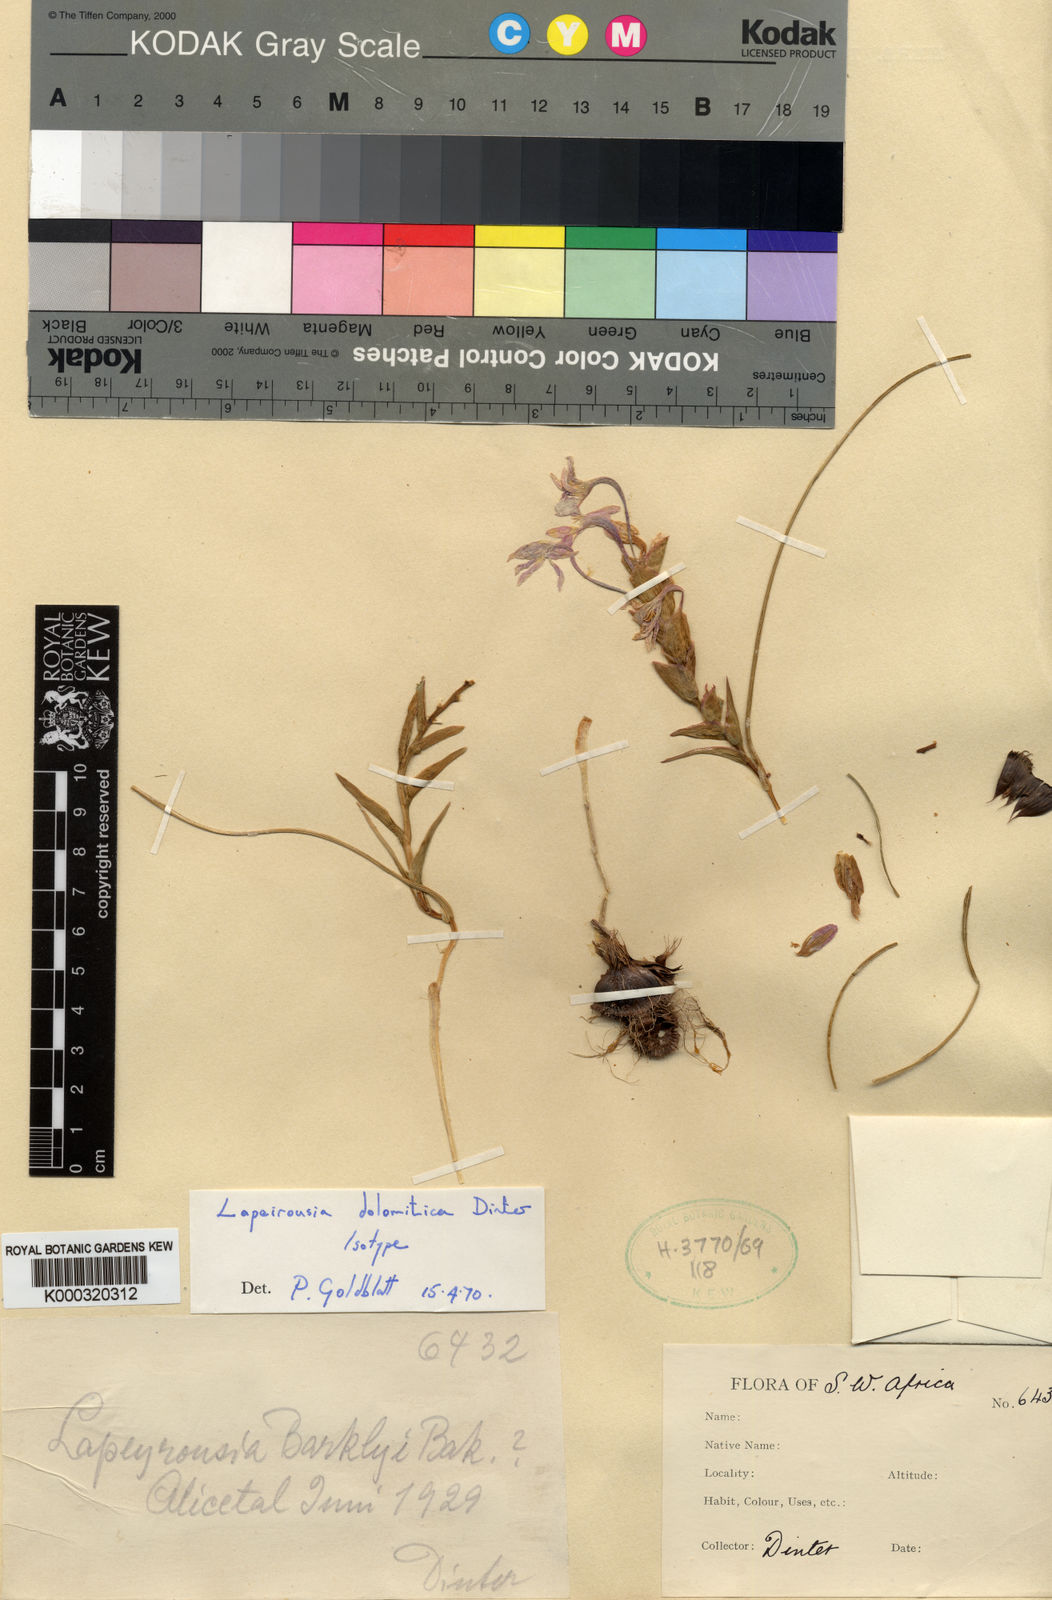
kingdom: Plantae
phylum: Tracheophyta
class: Liliopsida
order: Asparagales
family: Iridaceae
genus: Lapeirousia
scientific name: Lapeirousia dolomitica
